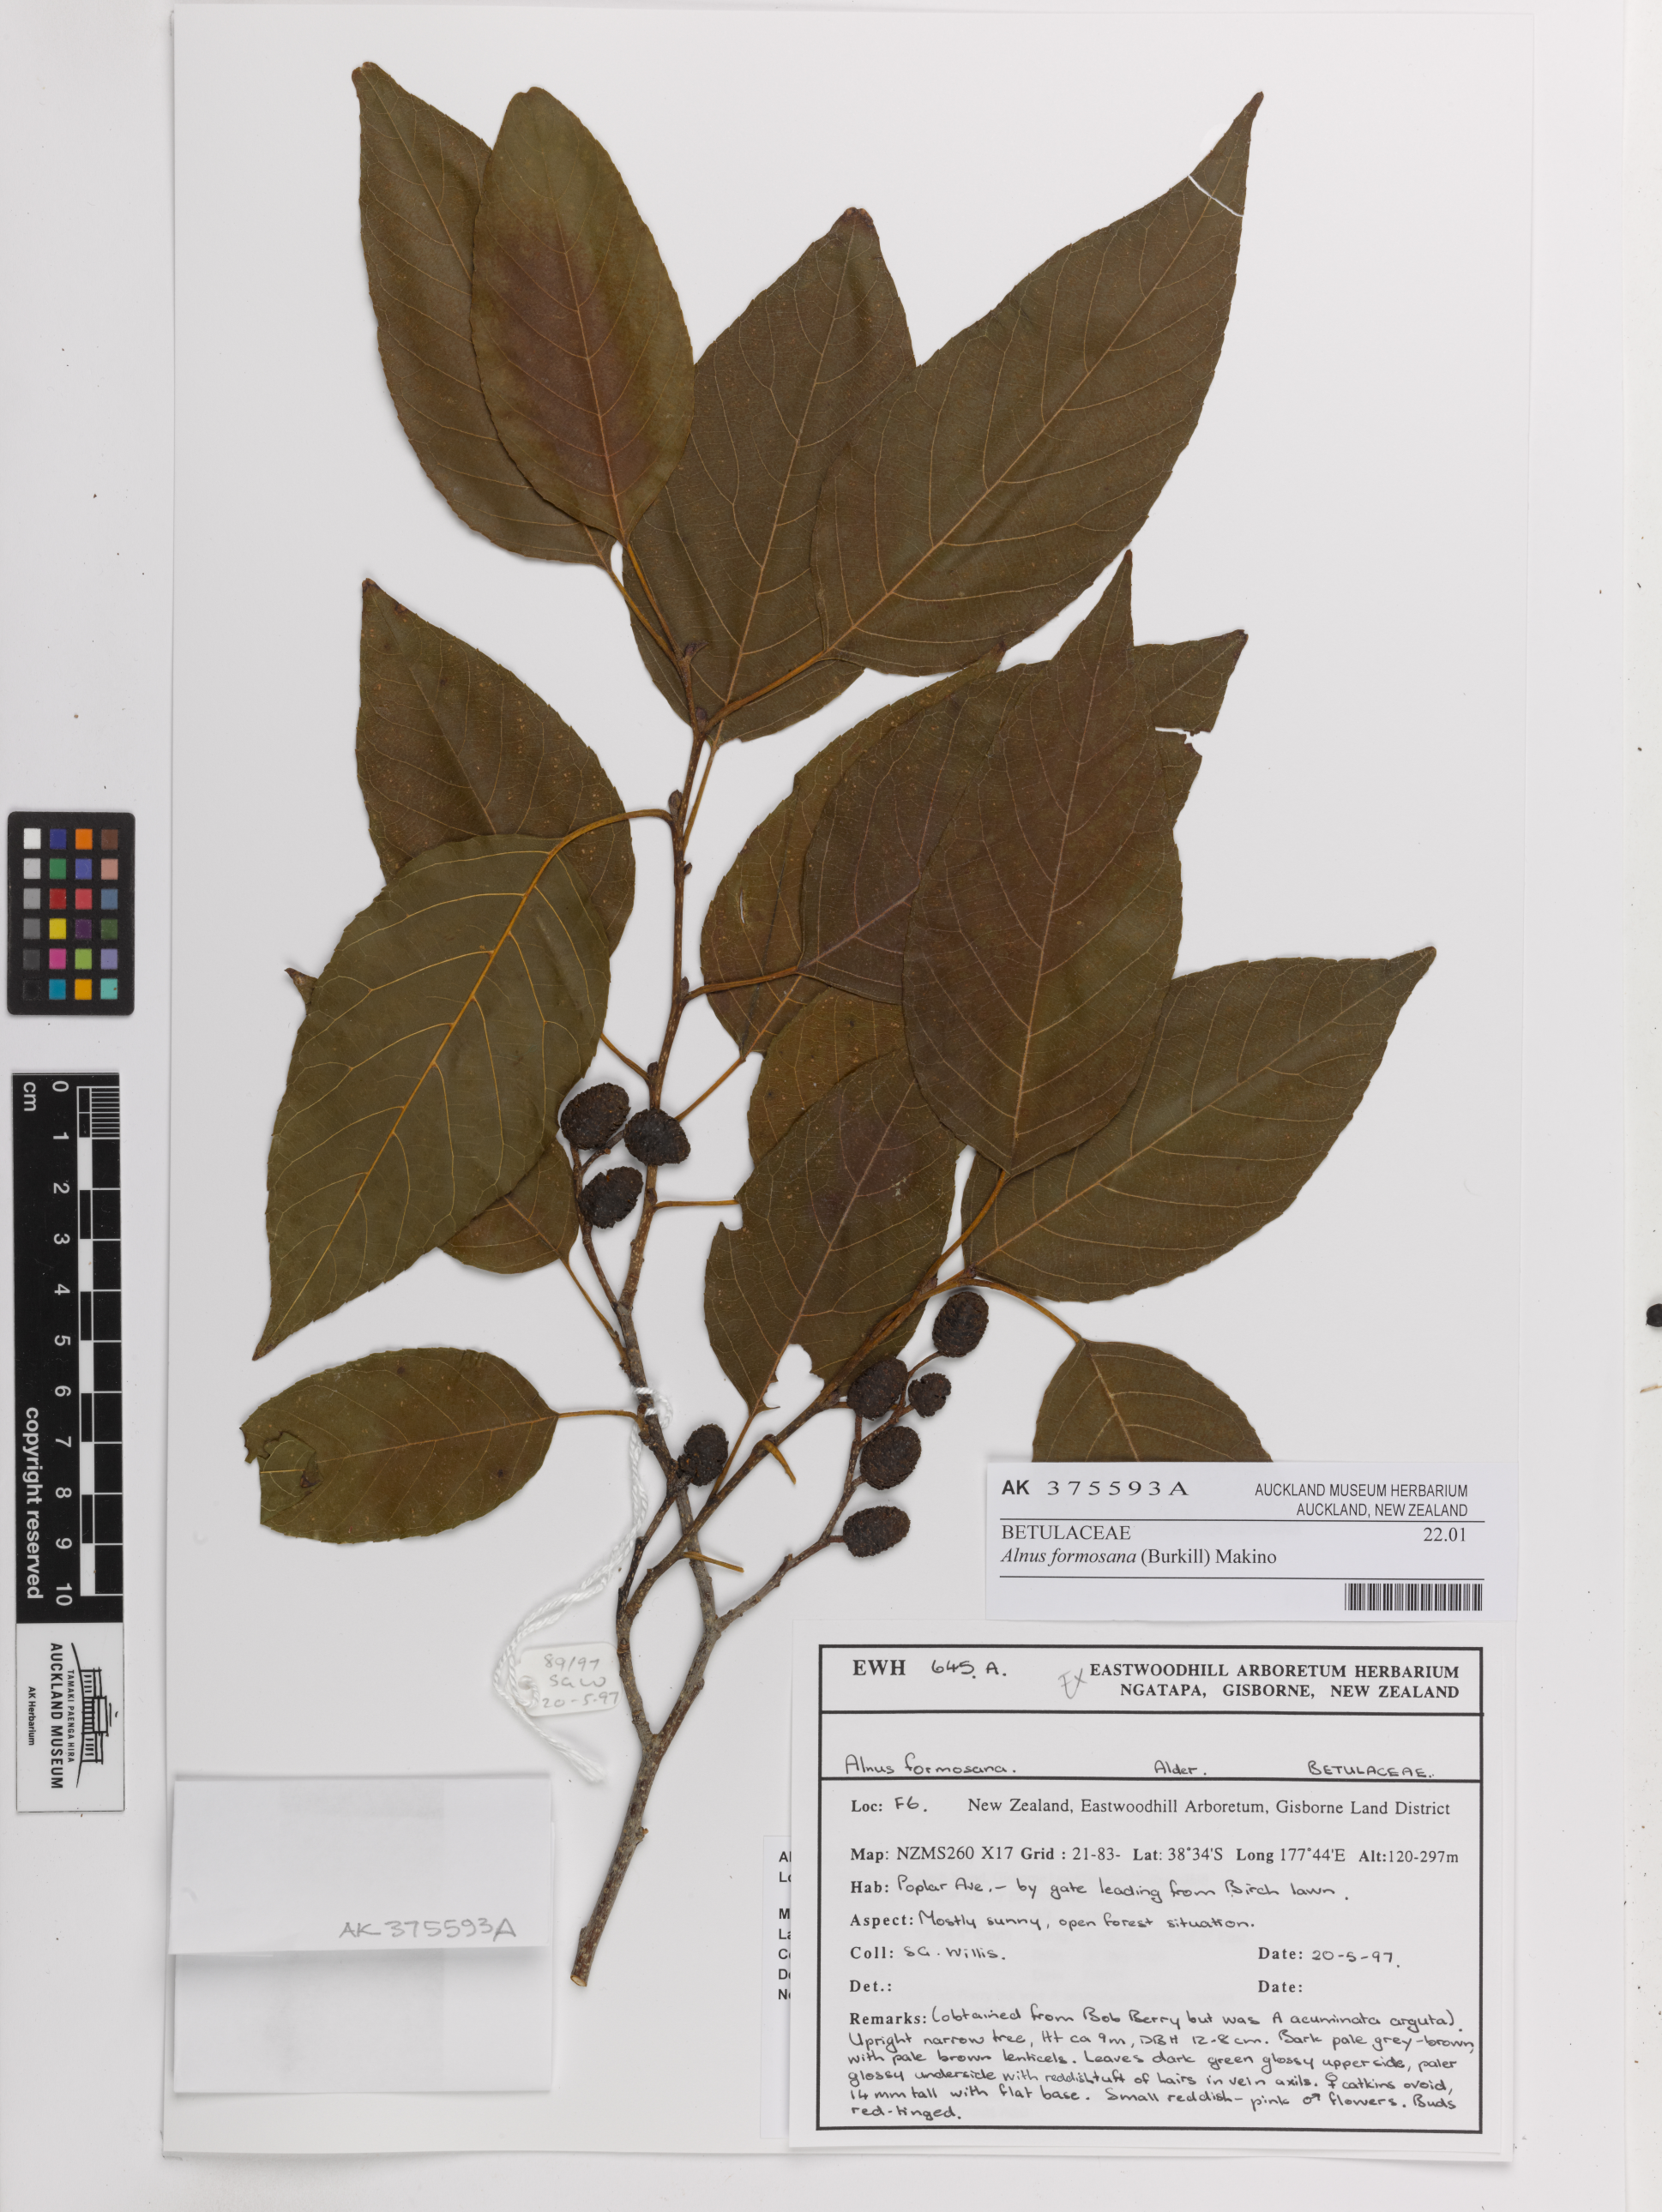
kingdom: Plantae
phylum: Tracheophyta
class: Magnoliopsida
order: Fagales
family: Betulaceae
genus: Alnus
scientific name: Alnus formosana
